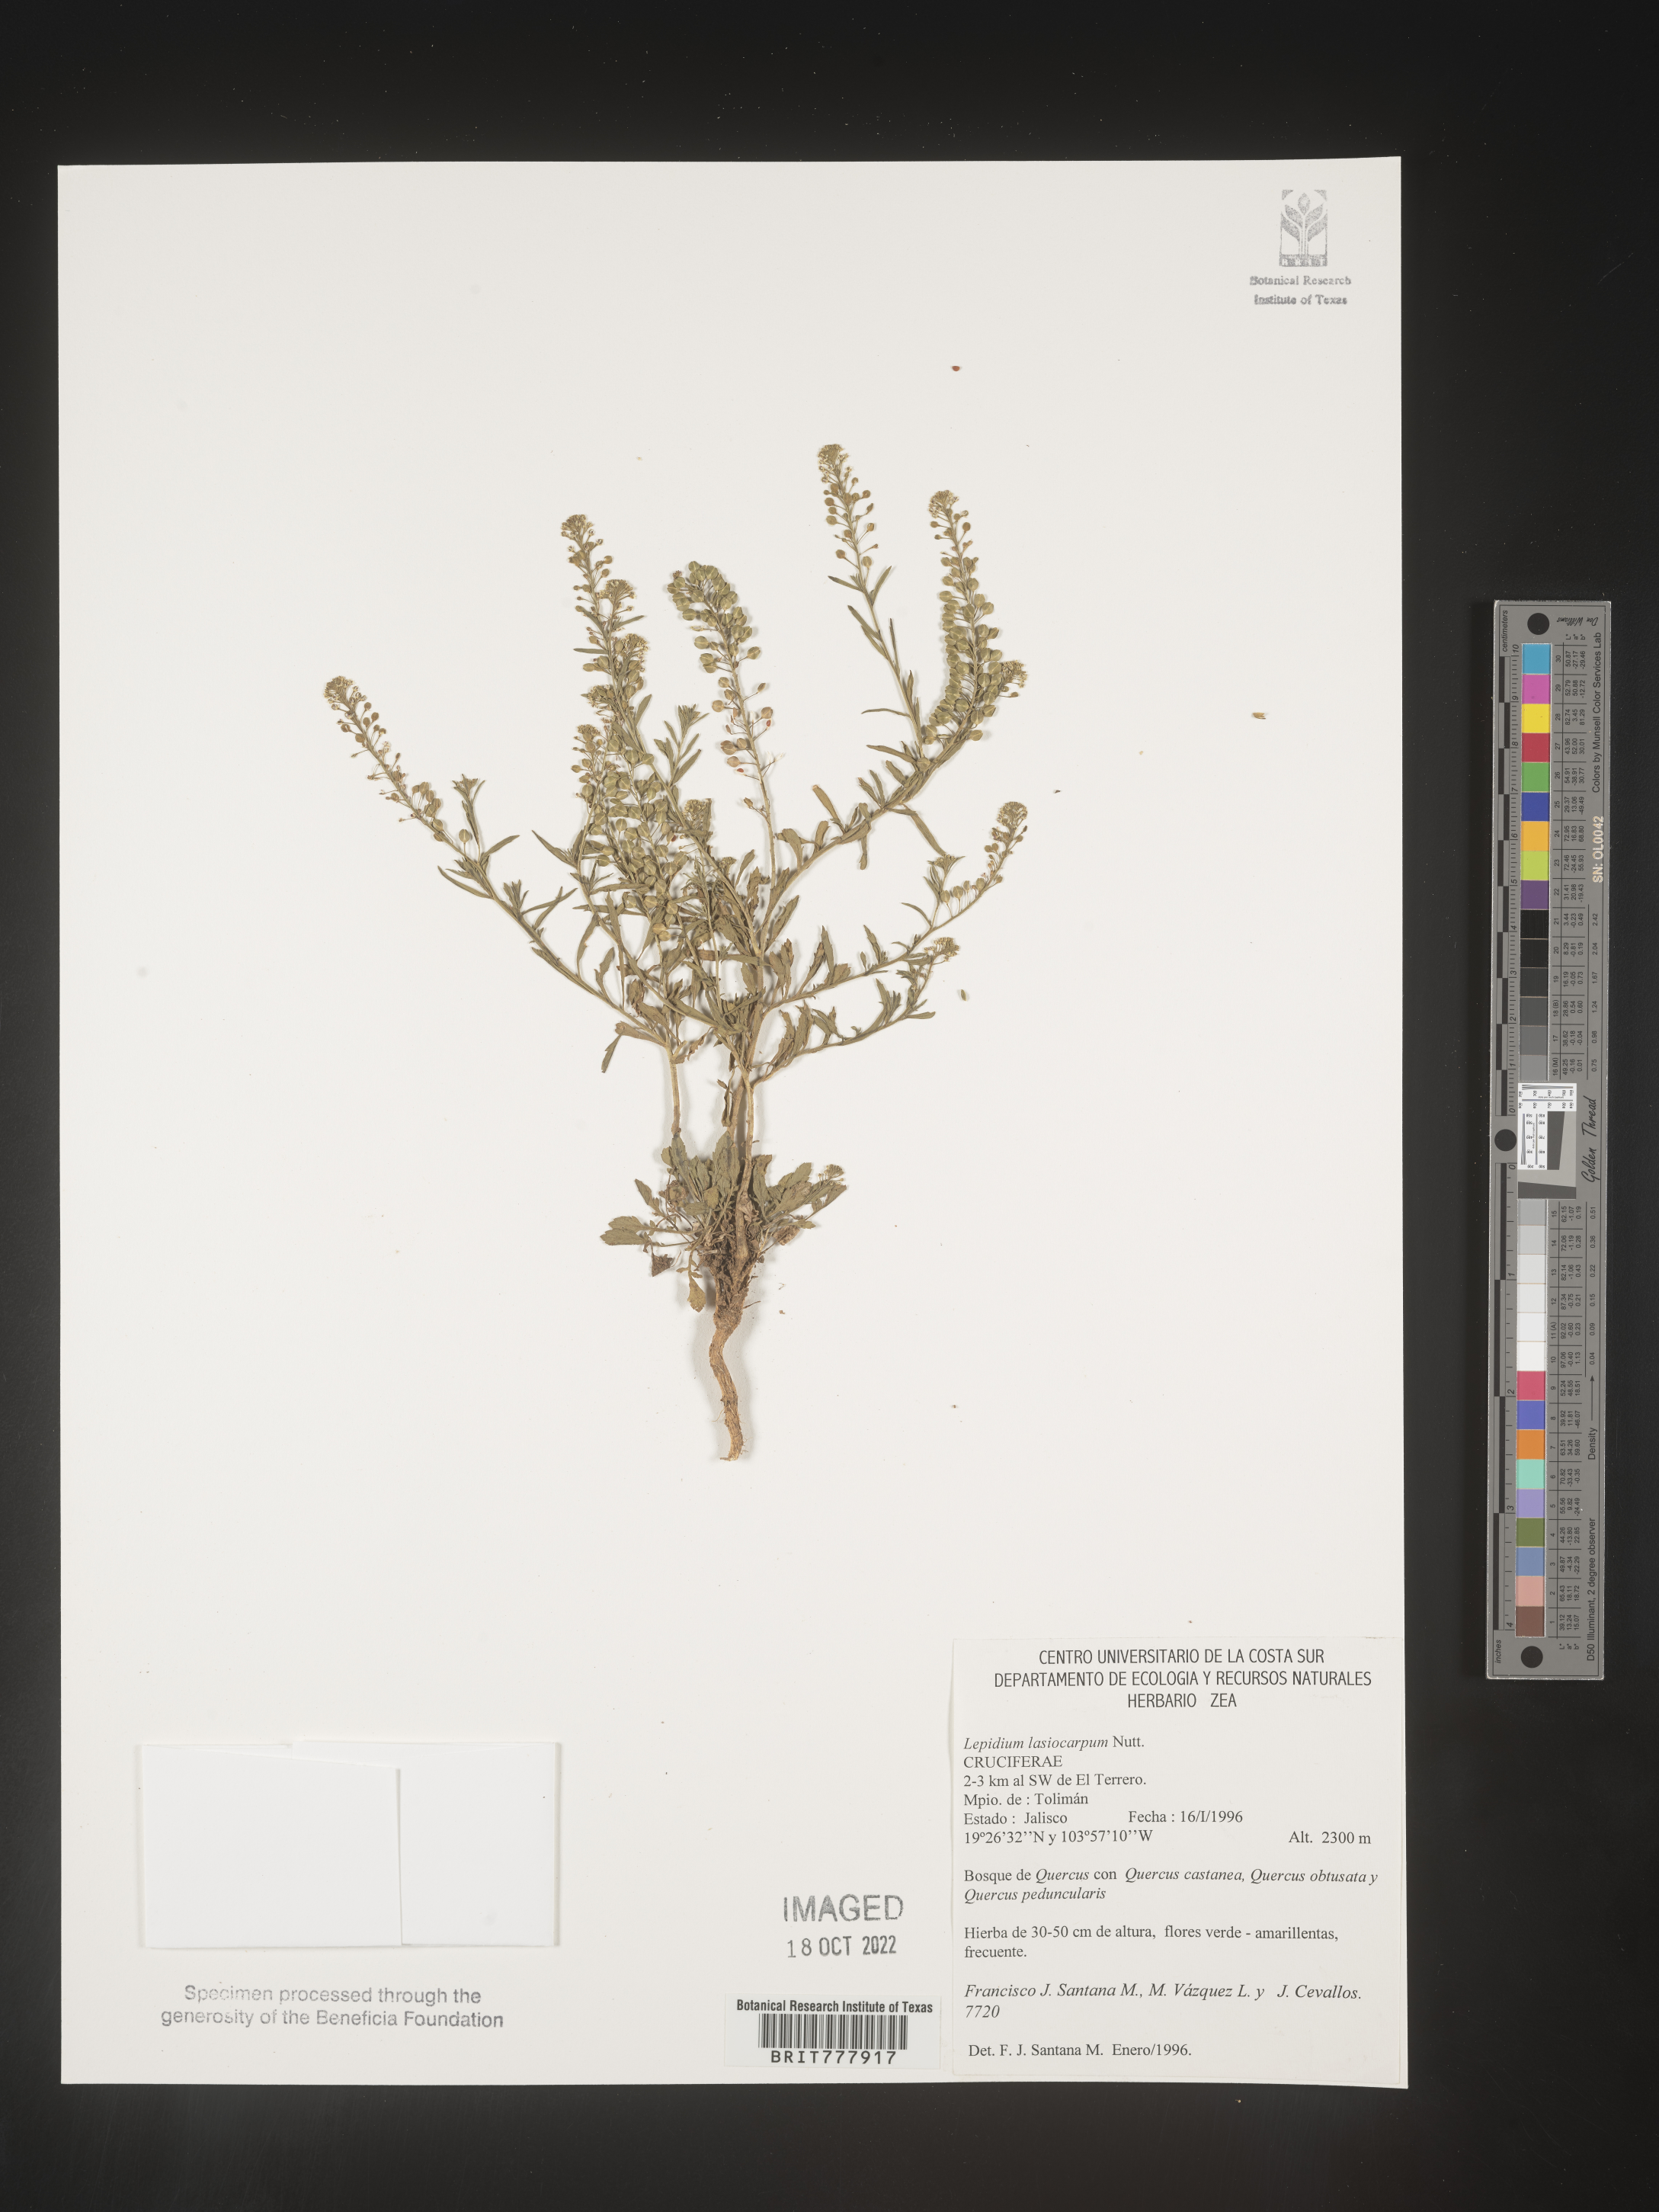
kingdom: Plantae
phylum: Tracheophyta
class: Magnoliopsida
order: Brassicales
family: Brassicaceae
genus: Lepidium
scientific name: Lepidium
